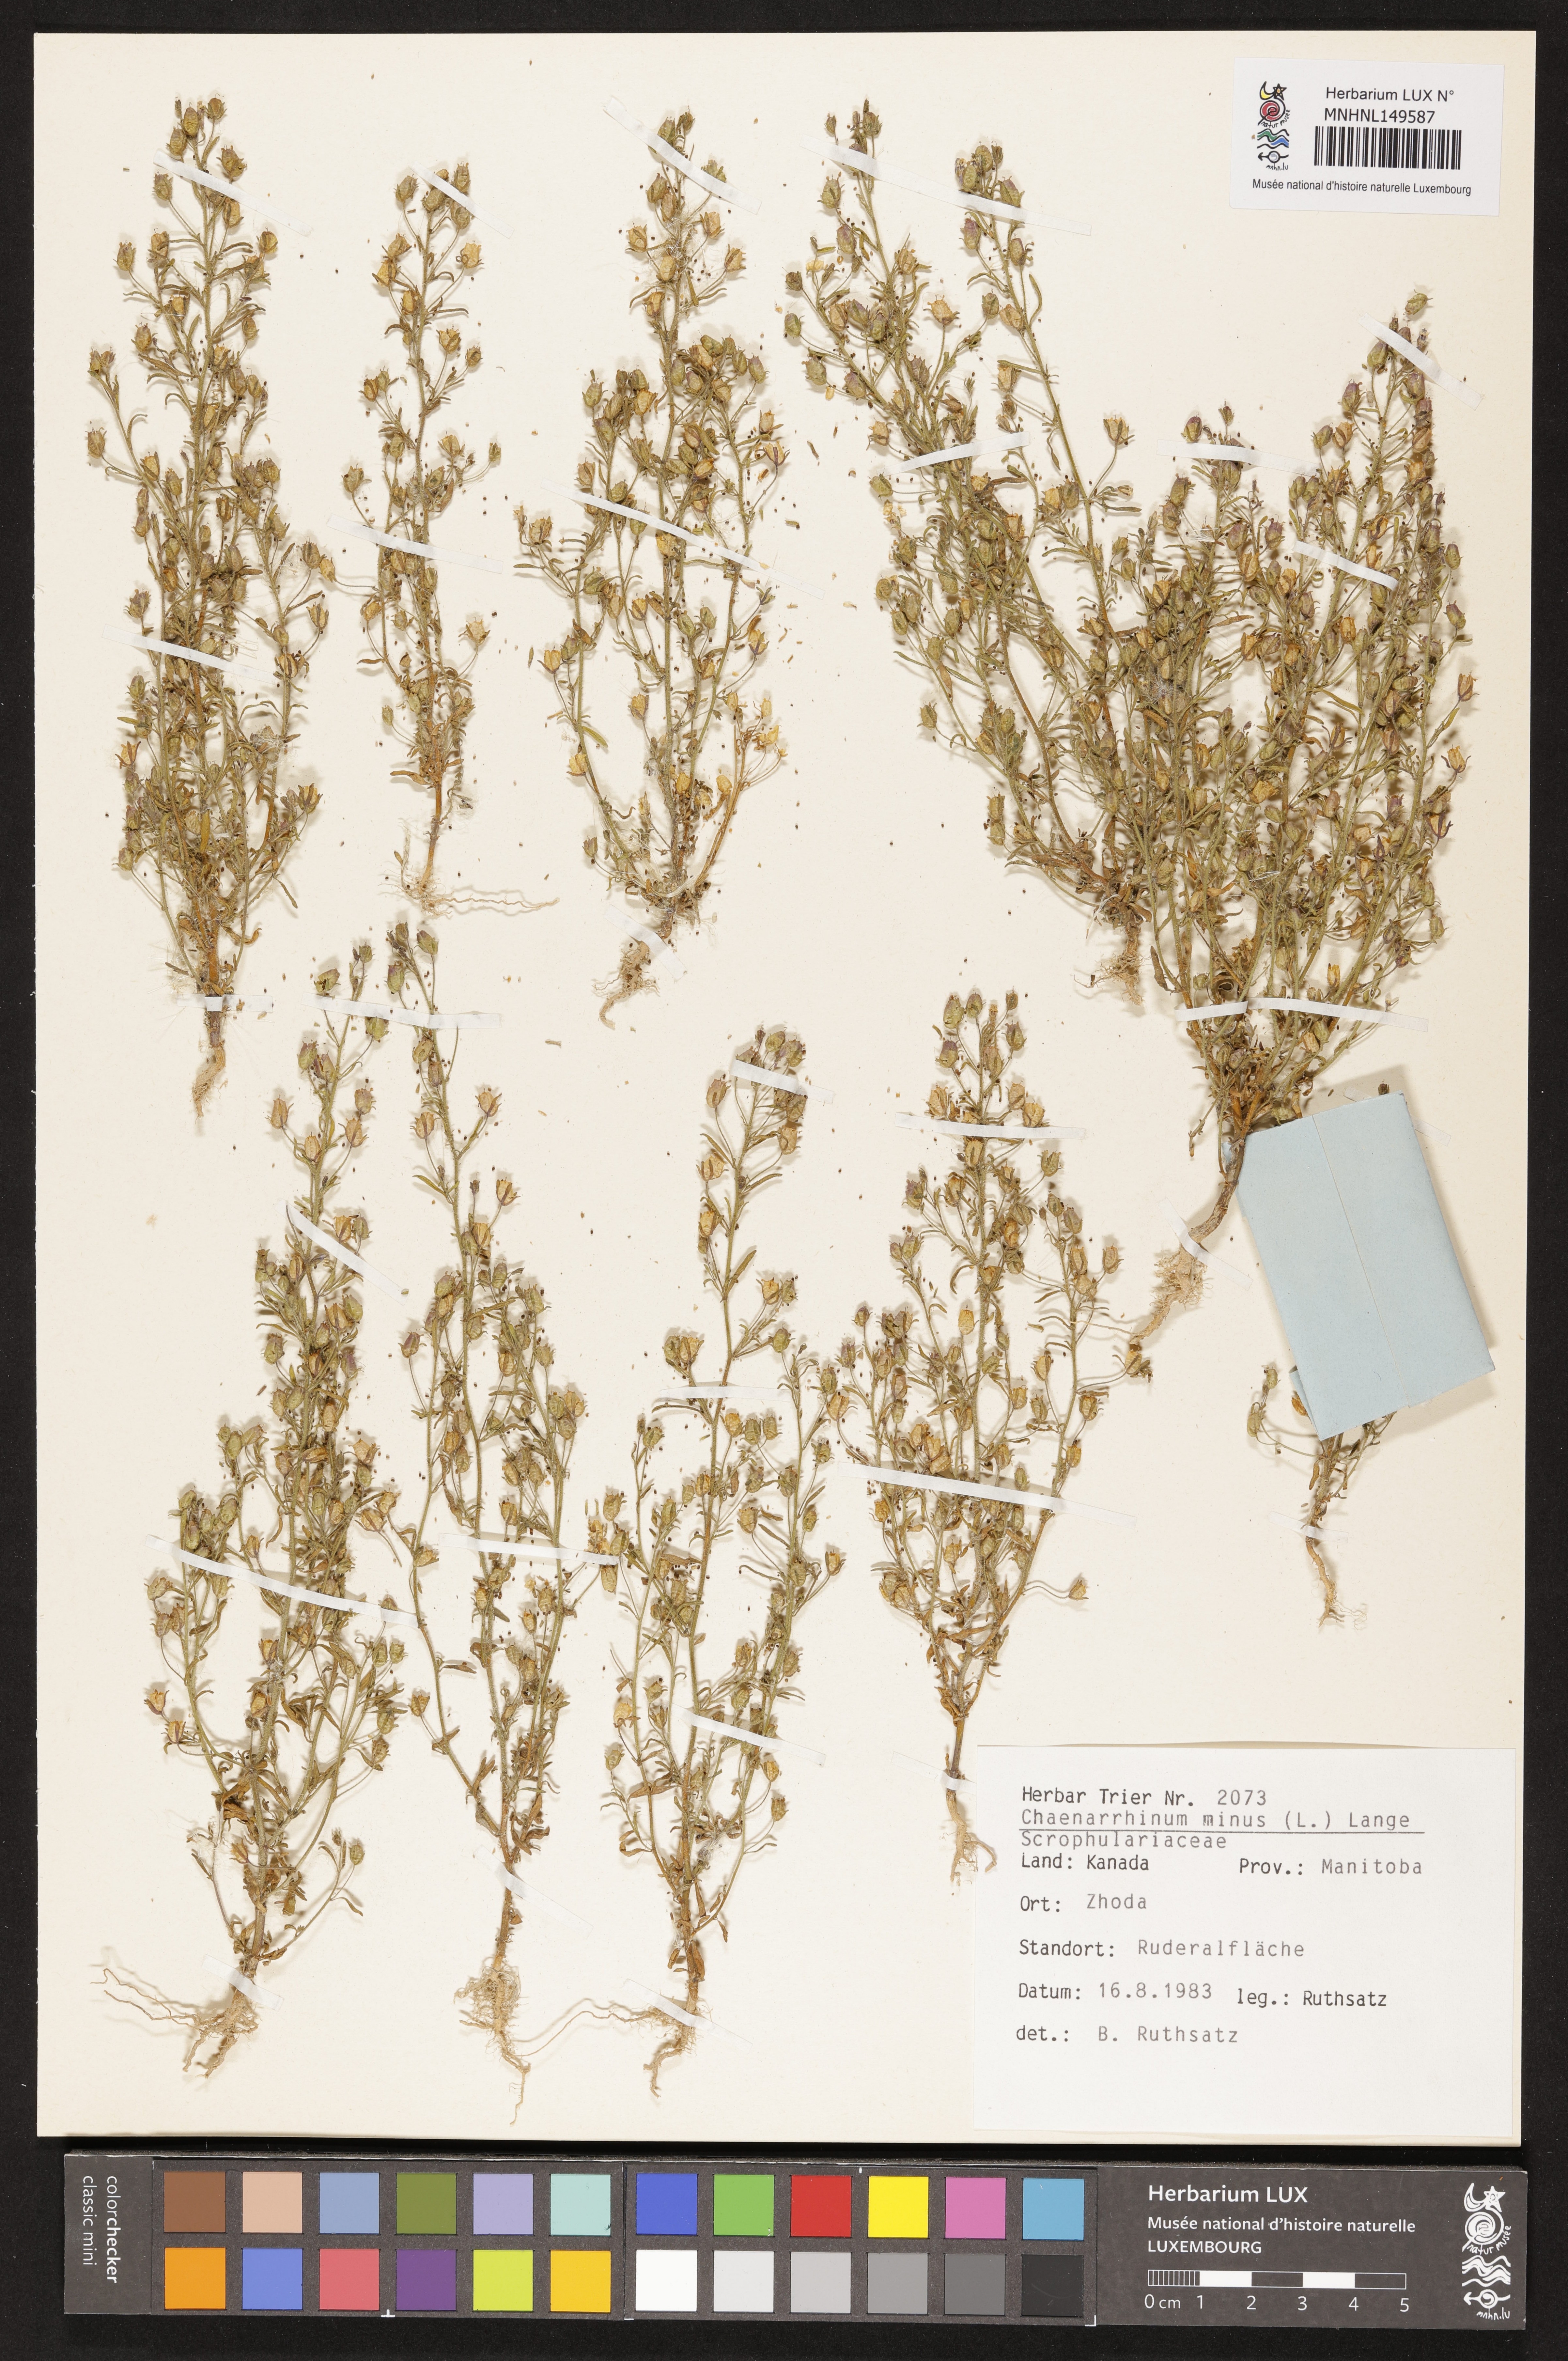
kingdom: Plantae
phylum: Tracheophyta
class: Magnoliopsida
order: Lamiales
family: Plantaginaceae
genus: Chaenorhinum
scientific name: Chaenorhinum minus
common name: Dwarf snapdragon
